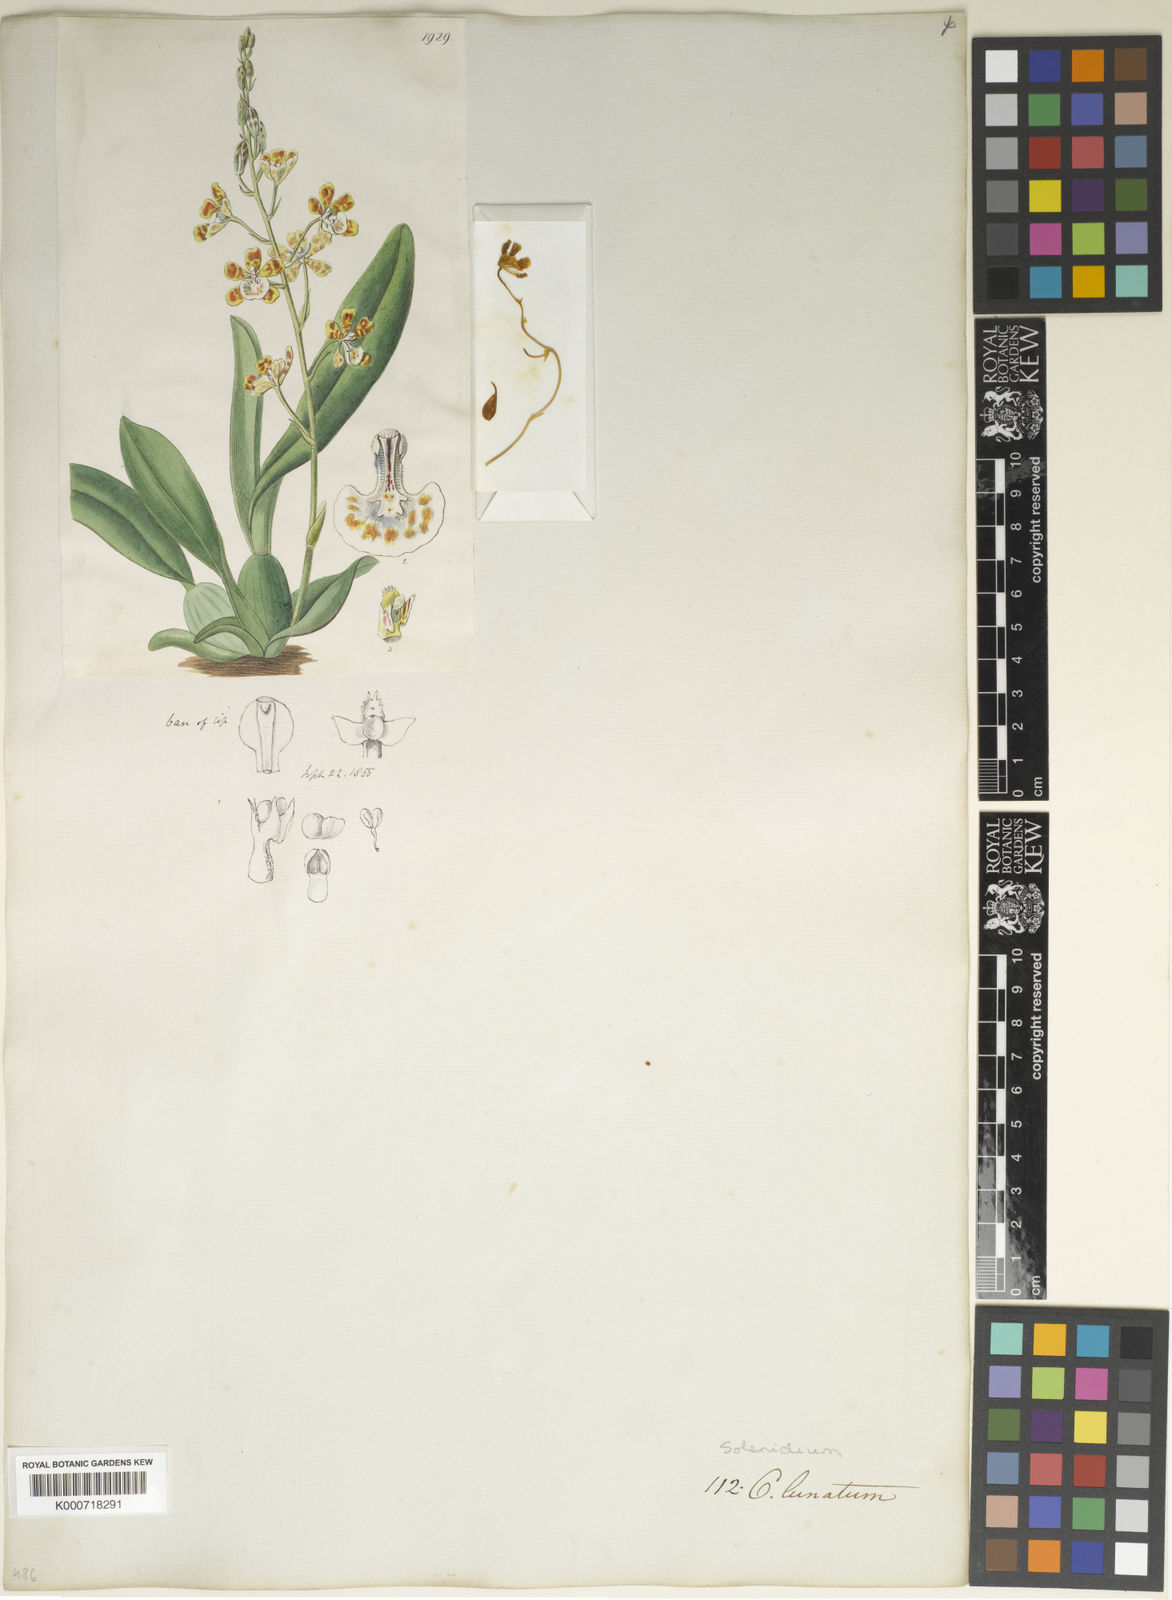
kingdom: Plantae
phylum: Tracheophyta
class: Liliopsida
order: Asparagales
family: Orchidaceae
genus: Solenidium
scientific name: Solenidium lunatum
